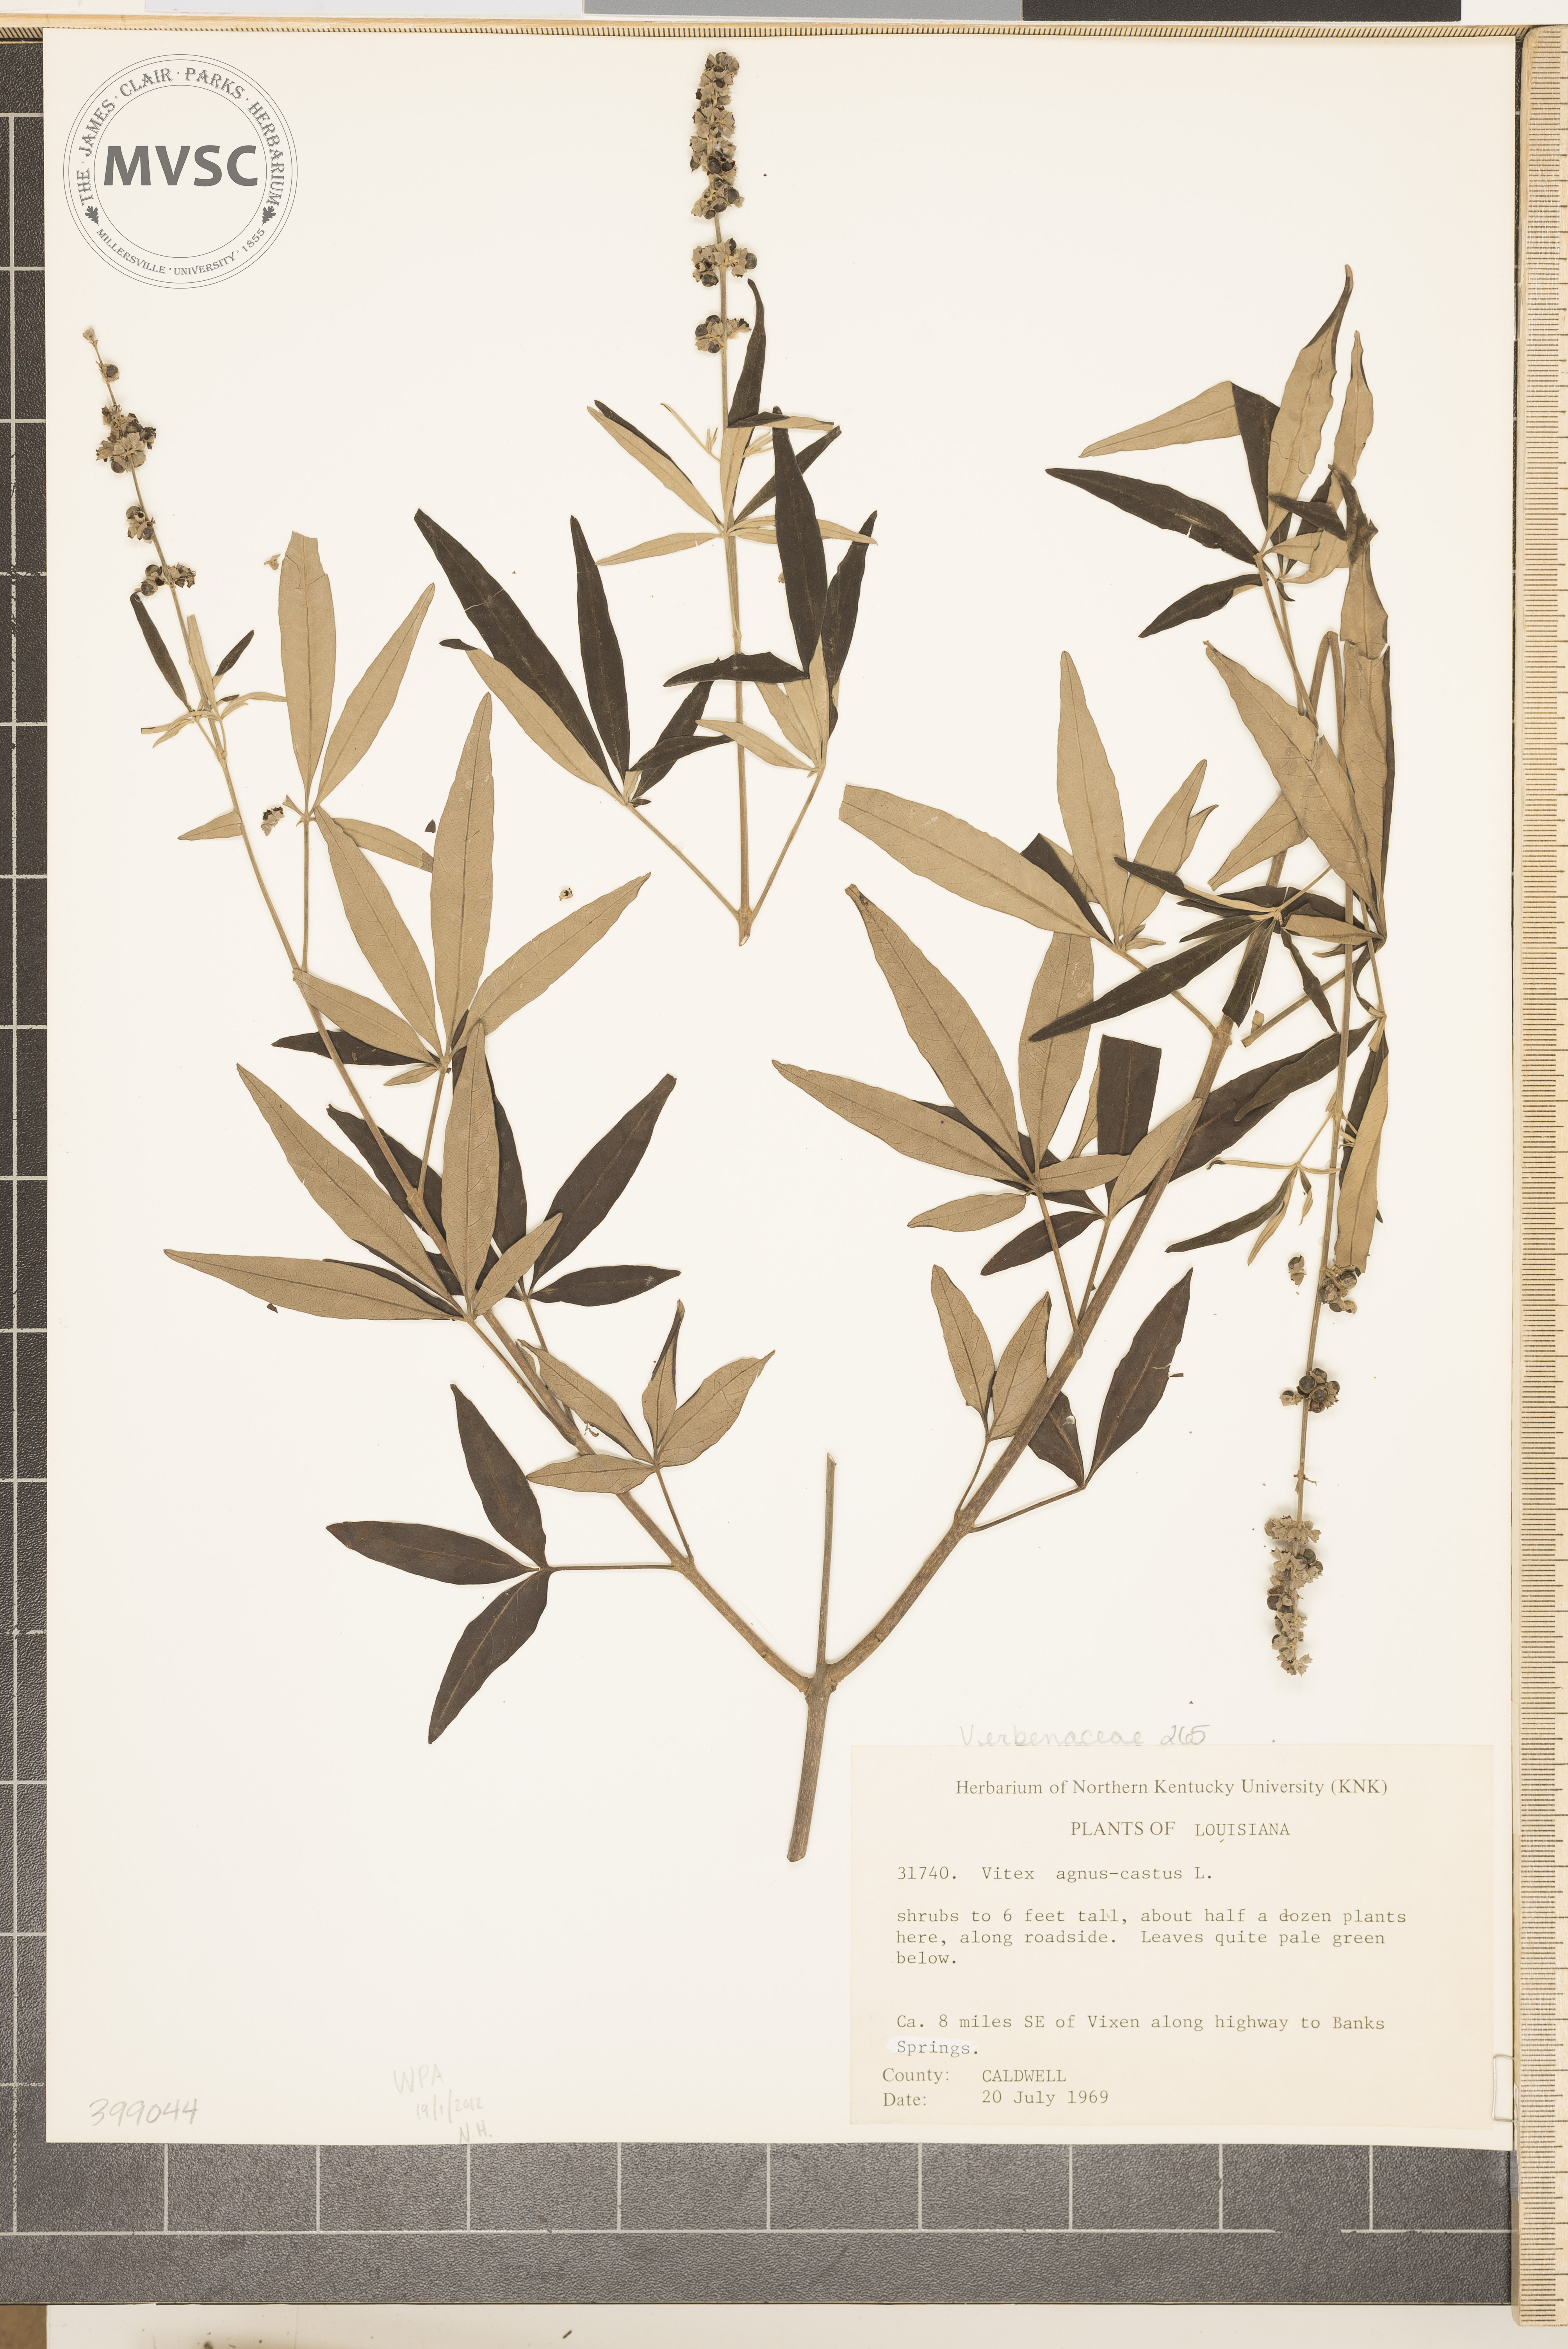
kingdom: Plantae
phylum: Tracheophyta
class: Magnoliopsida
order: Lamiales
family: Lamiaceae
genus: Vitex
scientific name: Vitex agnus-castus
